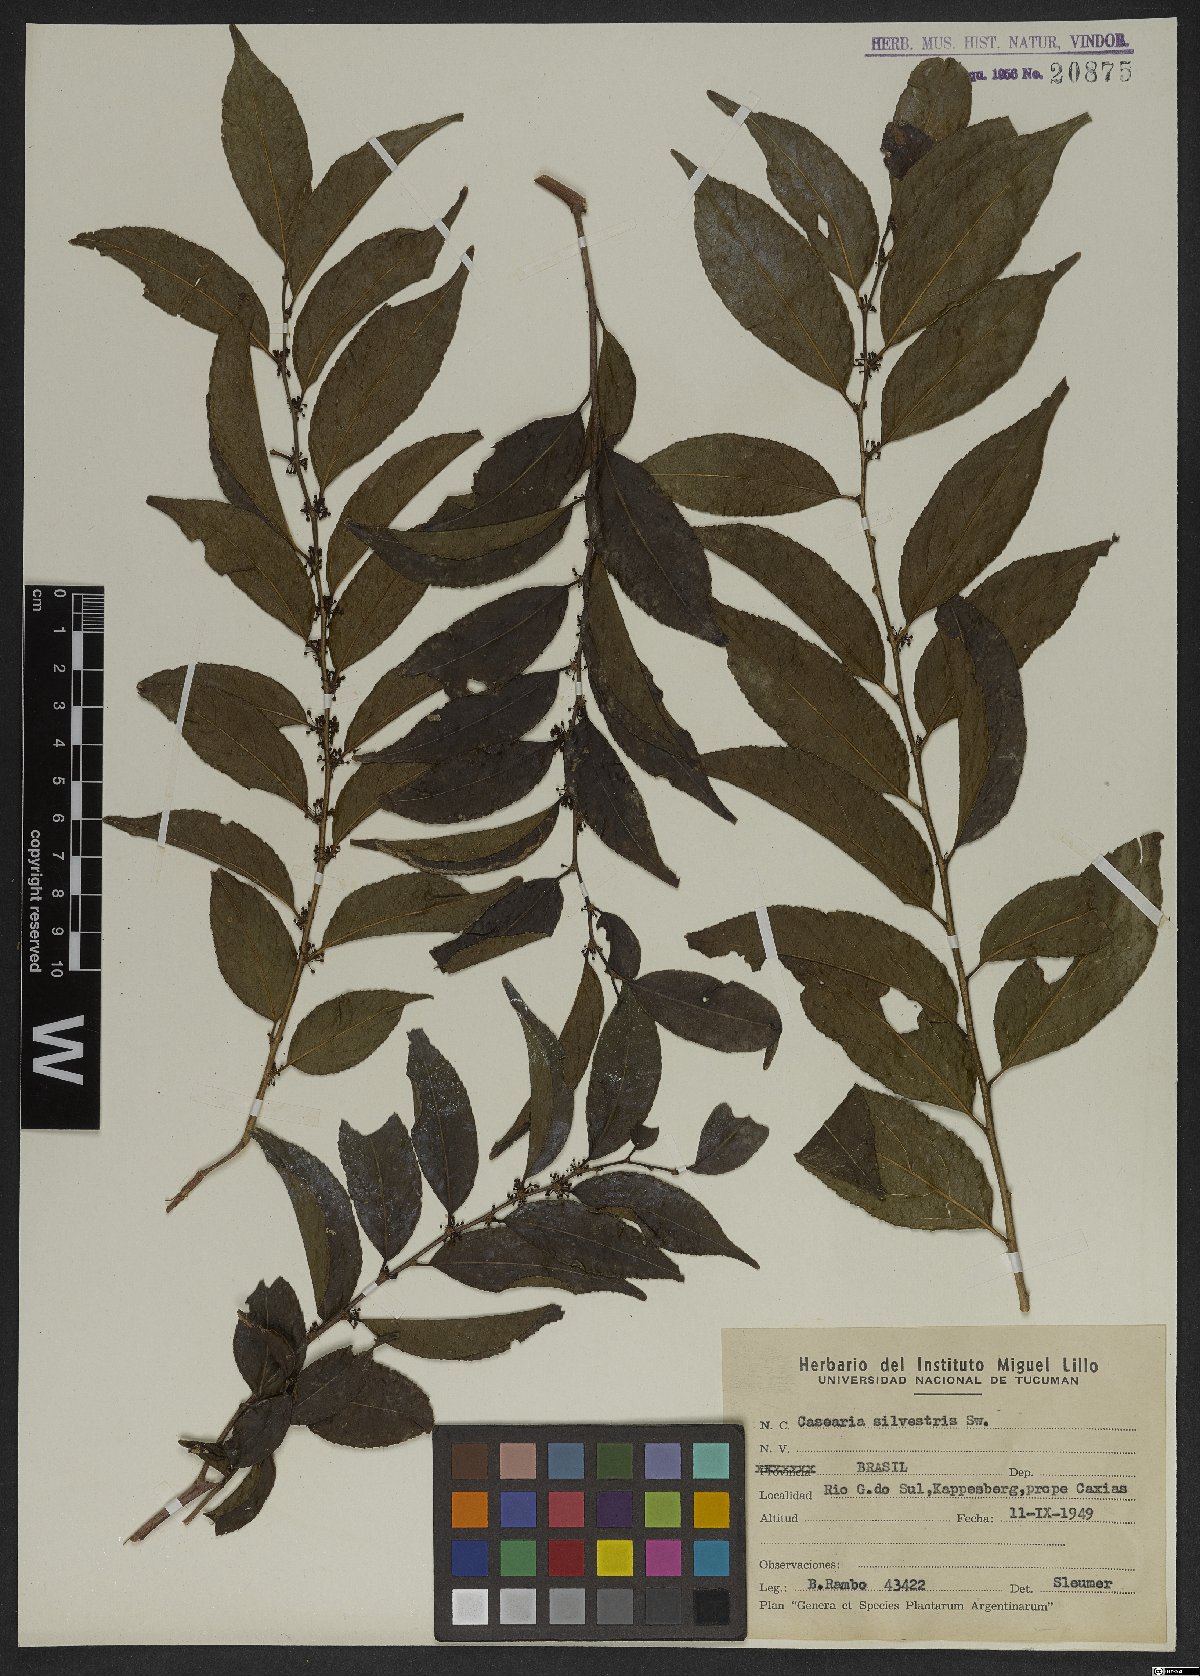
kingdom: Plantae
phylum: Tracheophyta
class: Magnoliopsida
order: Malpighiales
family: Salicaceae
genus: Casearia
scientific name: Casearia sylvestris
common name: Wild sage
